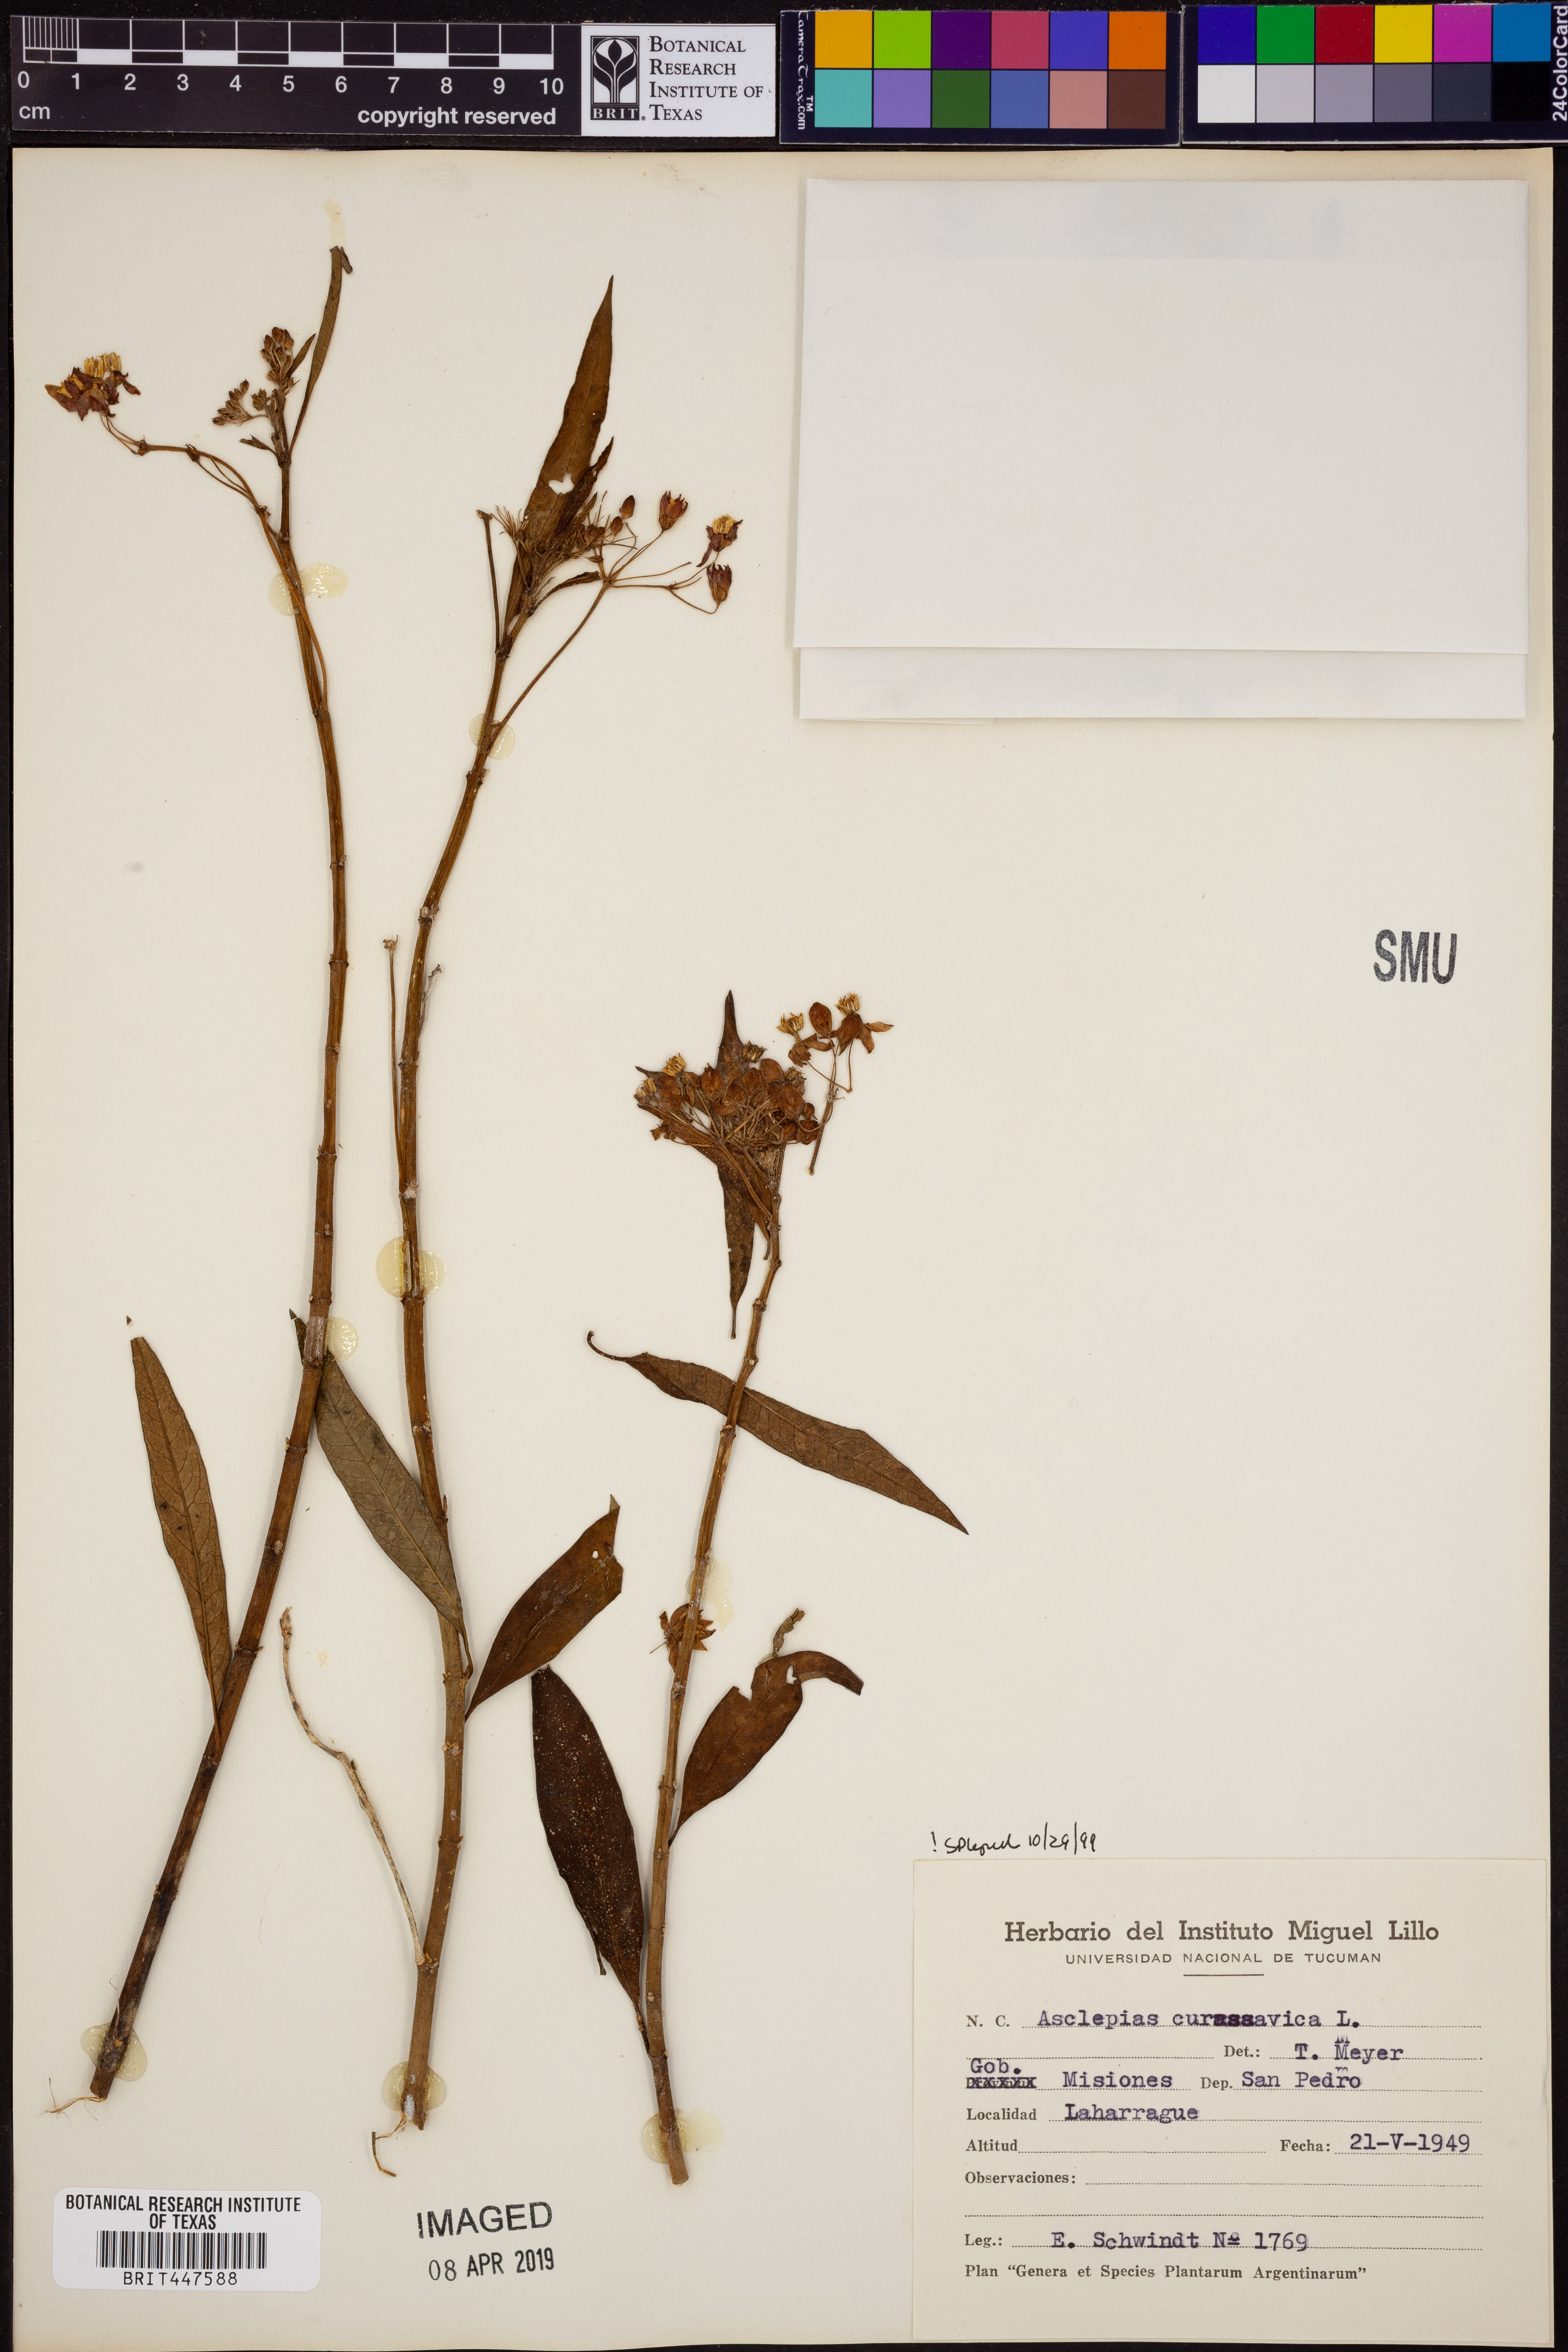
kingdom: Plantae
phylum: Tracheophyta
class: Magnoliopsida
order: Gentianales
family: Apocynaceae
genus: Asclepias
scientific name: Asclepias curassavica
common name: Bloodflower
